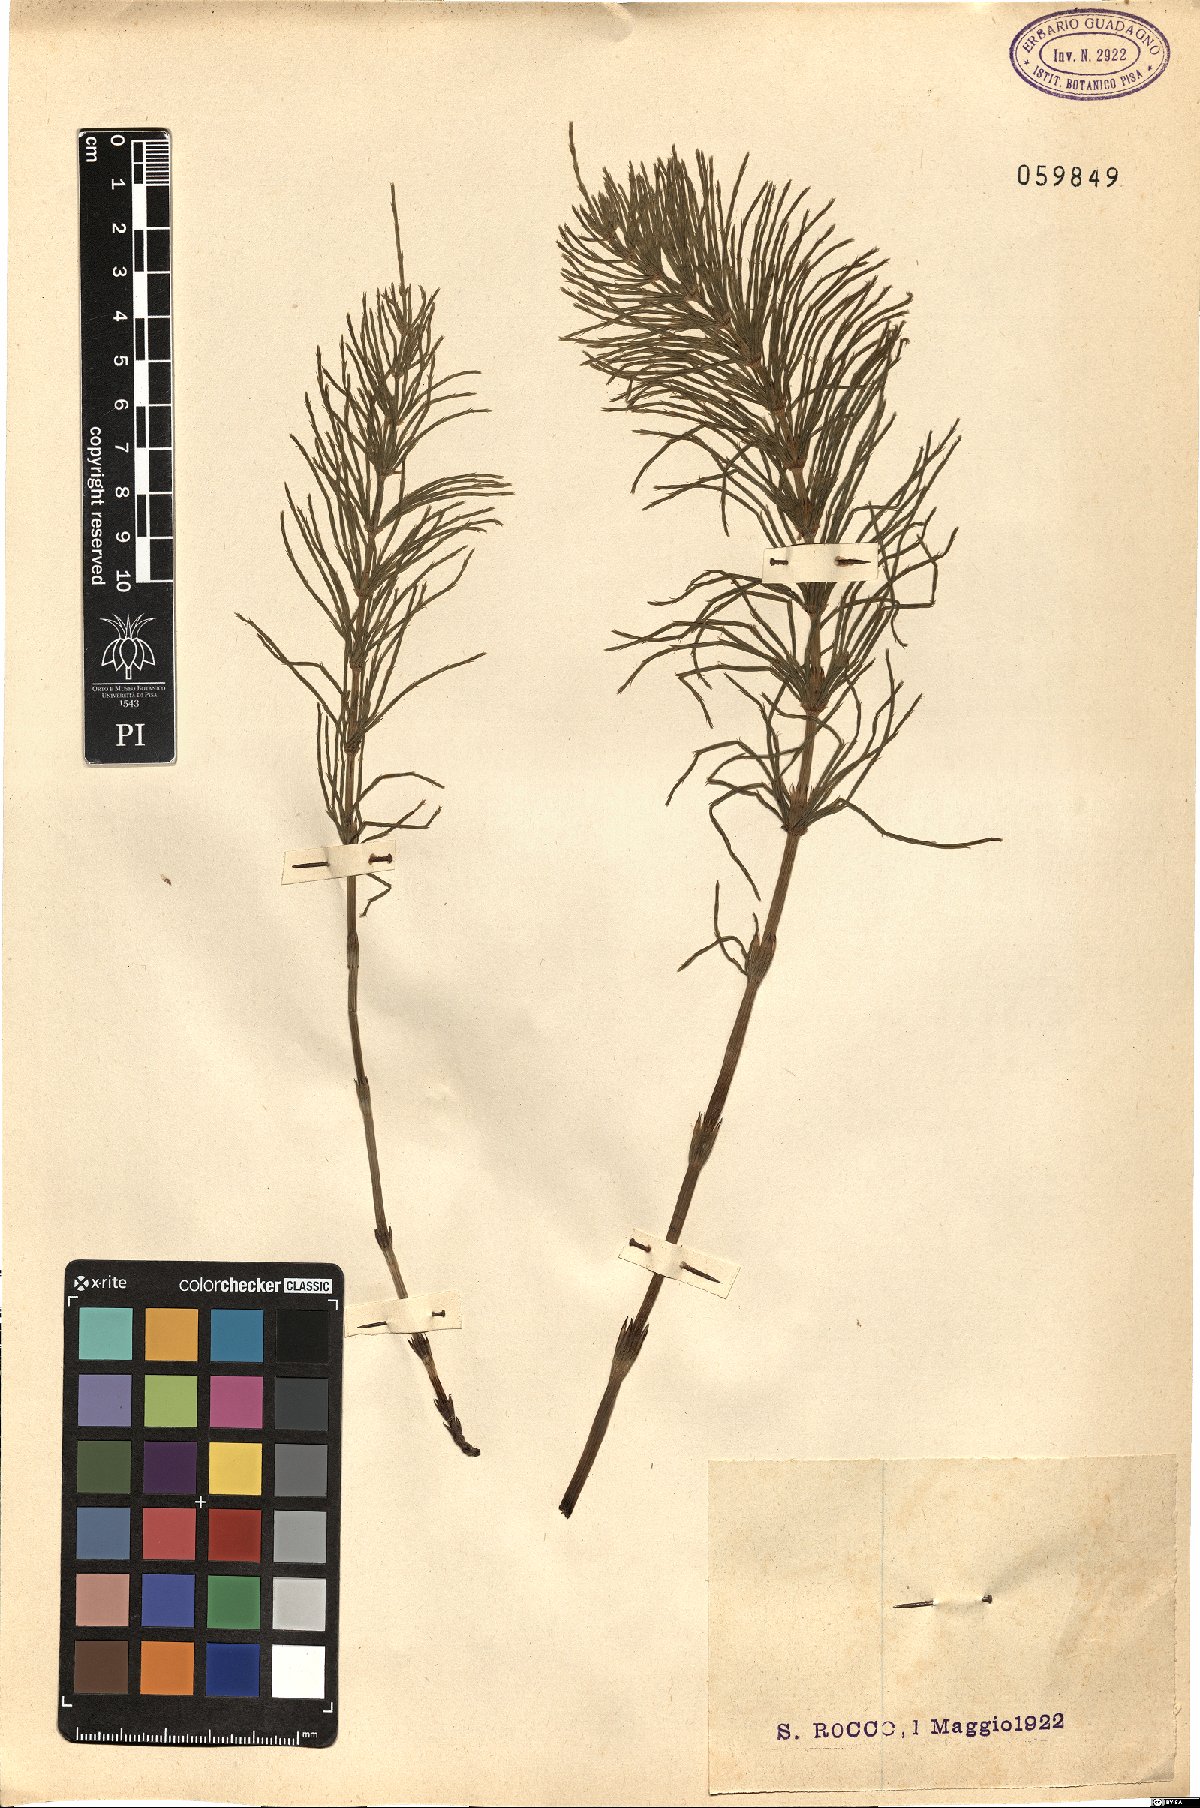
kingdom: Plantae
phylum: Tracheophyta
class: Polypodiopsida
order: Equisetales
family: Equisetaceae
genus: Equisetum
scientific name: Equisetum
